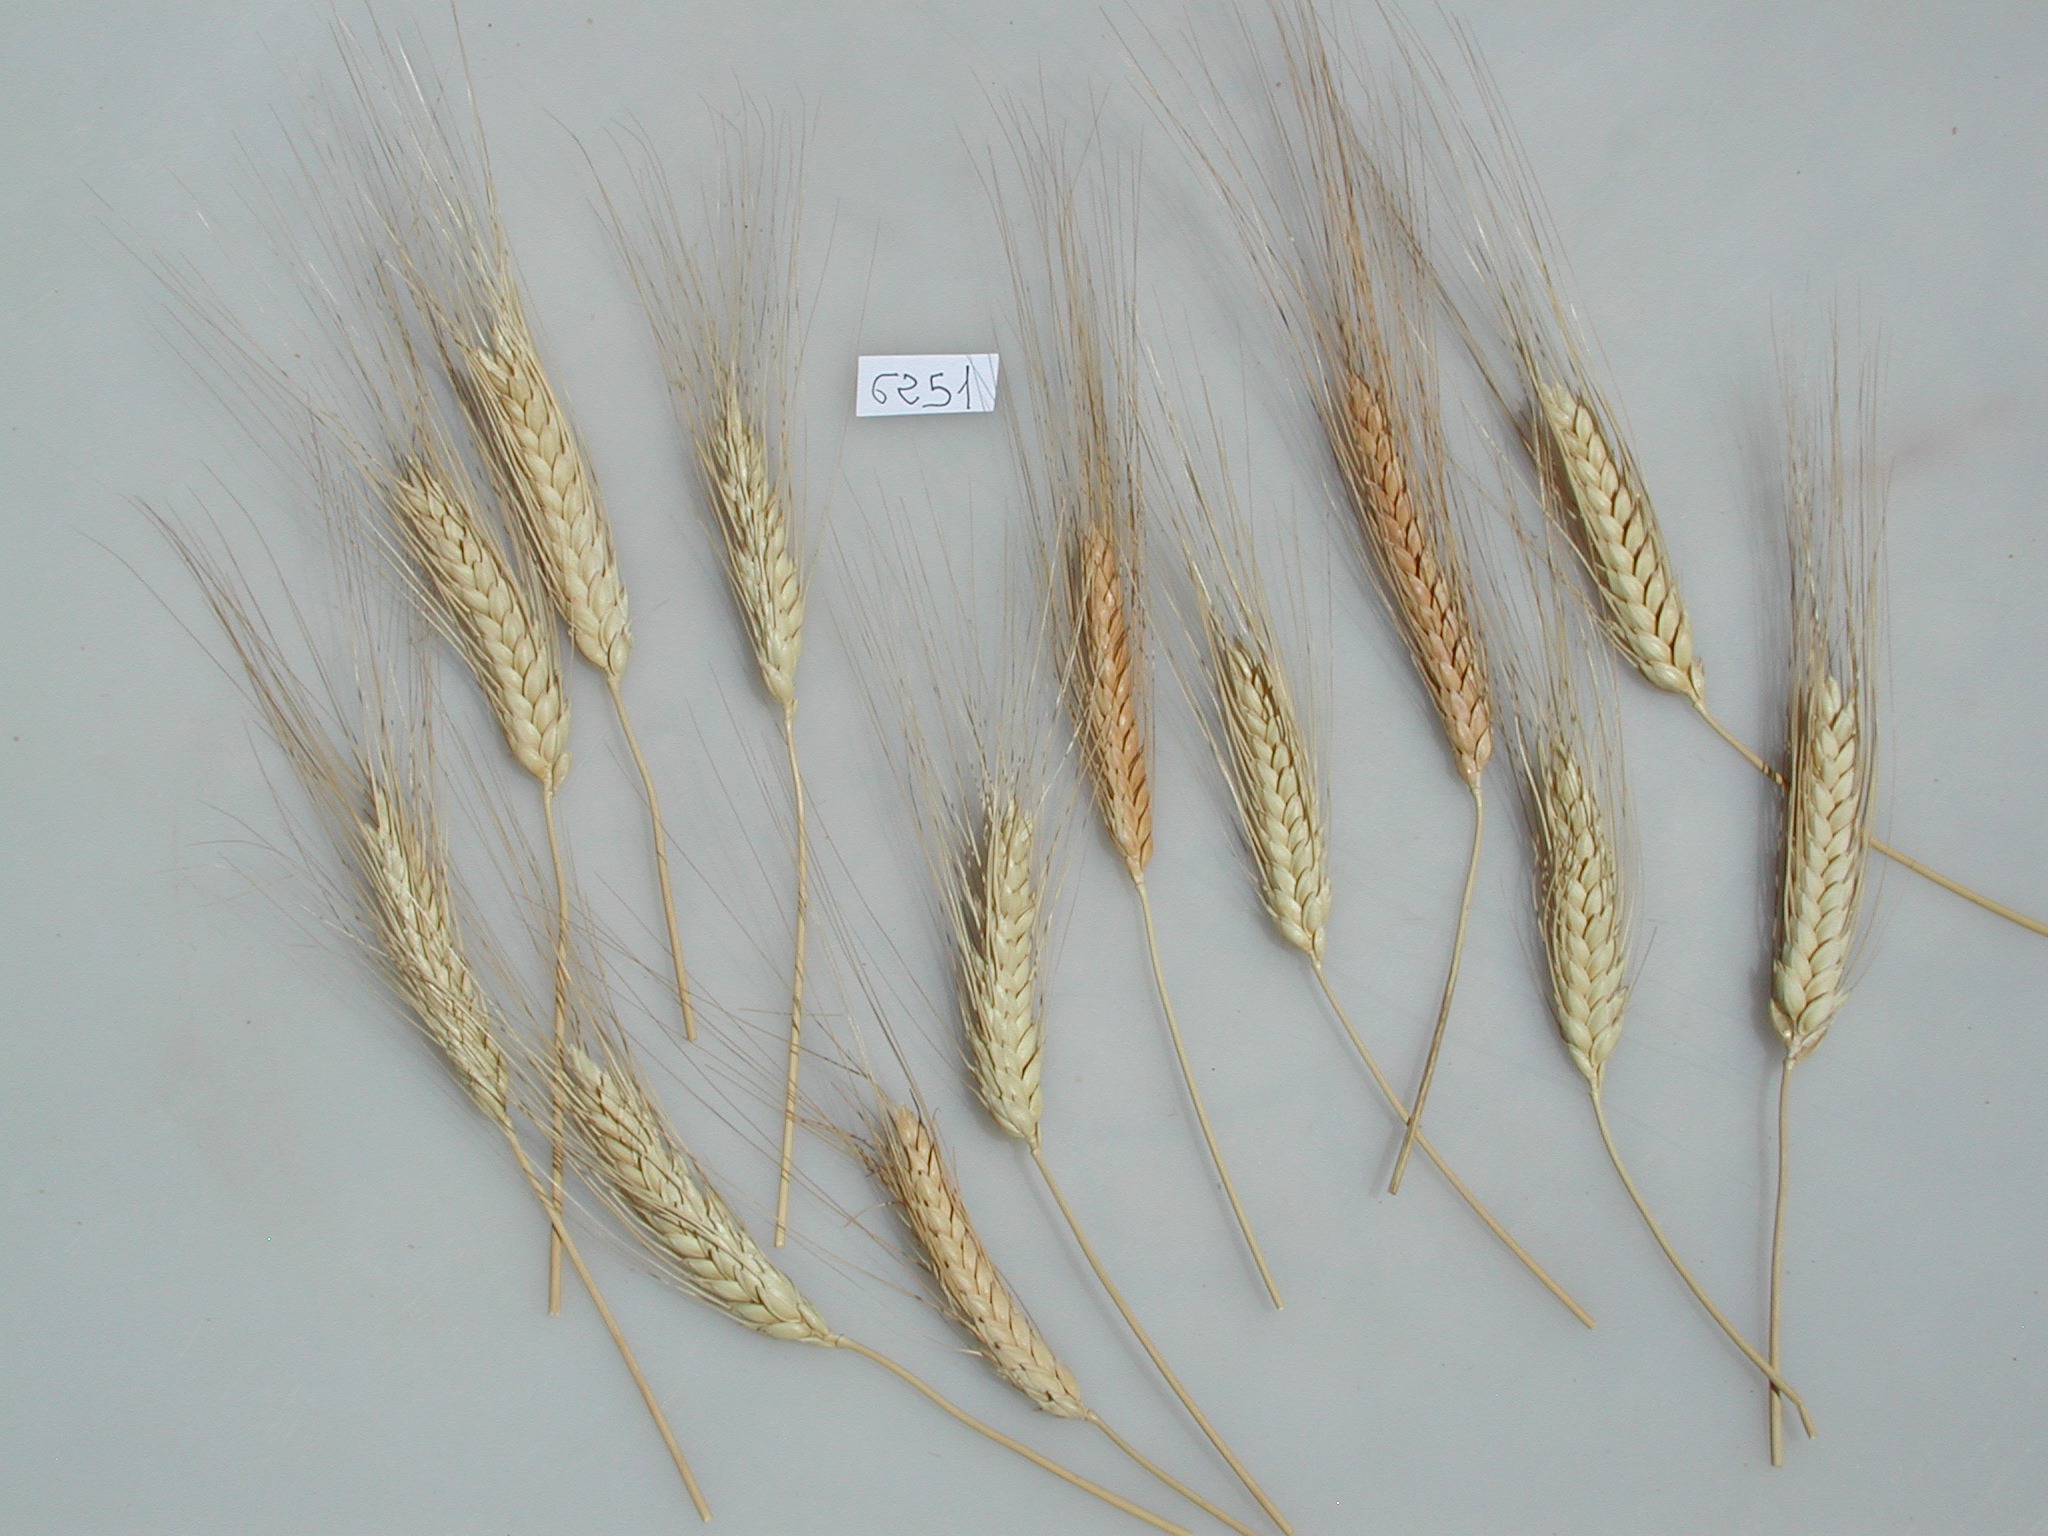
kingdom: Plantae
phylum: Tracheophyta
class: Liliopsida
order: Poales
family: Poaceae
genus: Triticum
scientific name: Triticum turgidum
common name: Wheat
